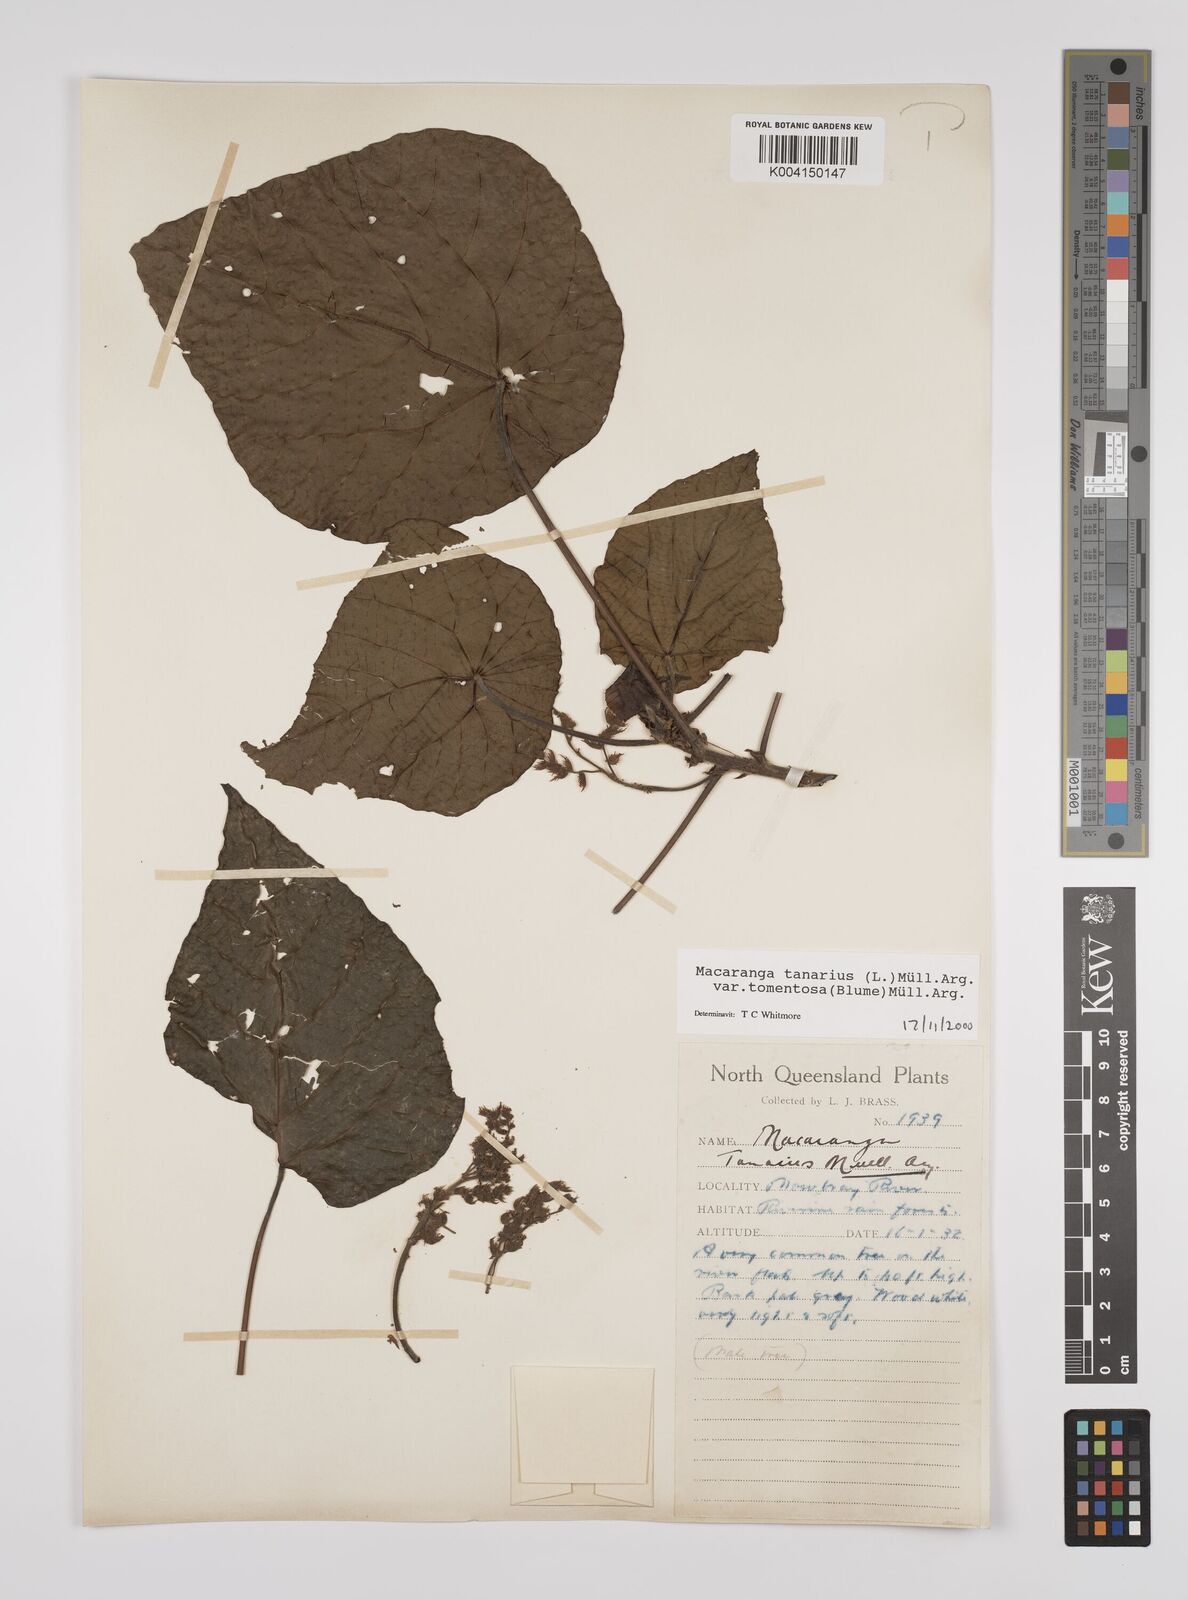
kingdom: Plantae
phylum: Tracheophyta
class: Magnoliopsida
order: Malpighiales
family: Euphorbiaceae
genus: Macaranga
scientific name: Macaranga tanarius
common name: Parasol leaf tree
